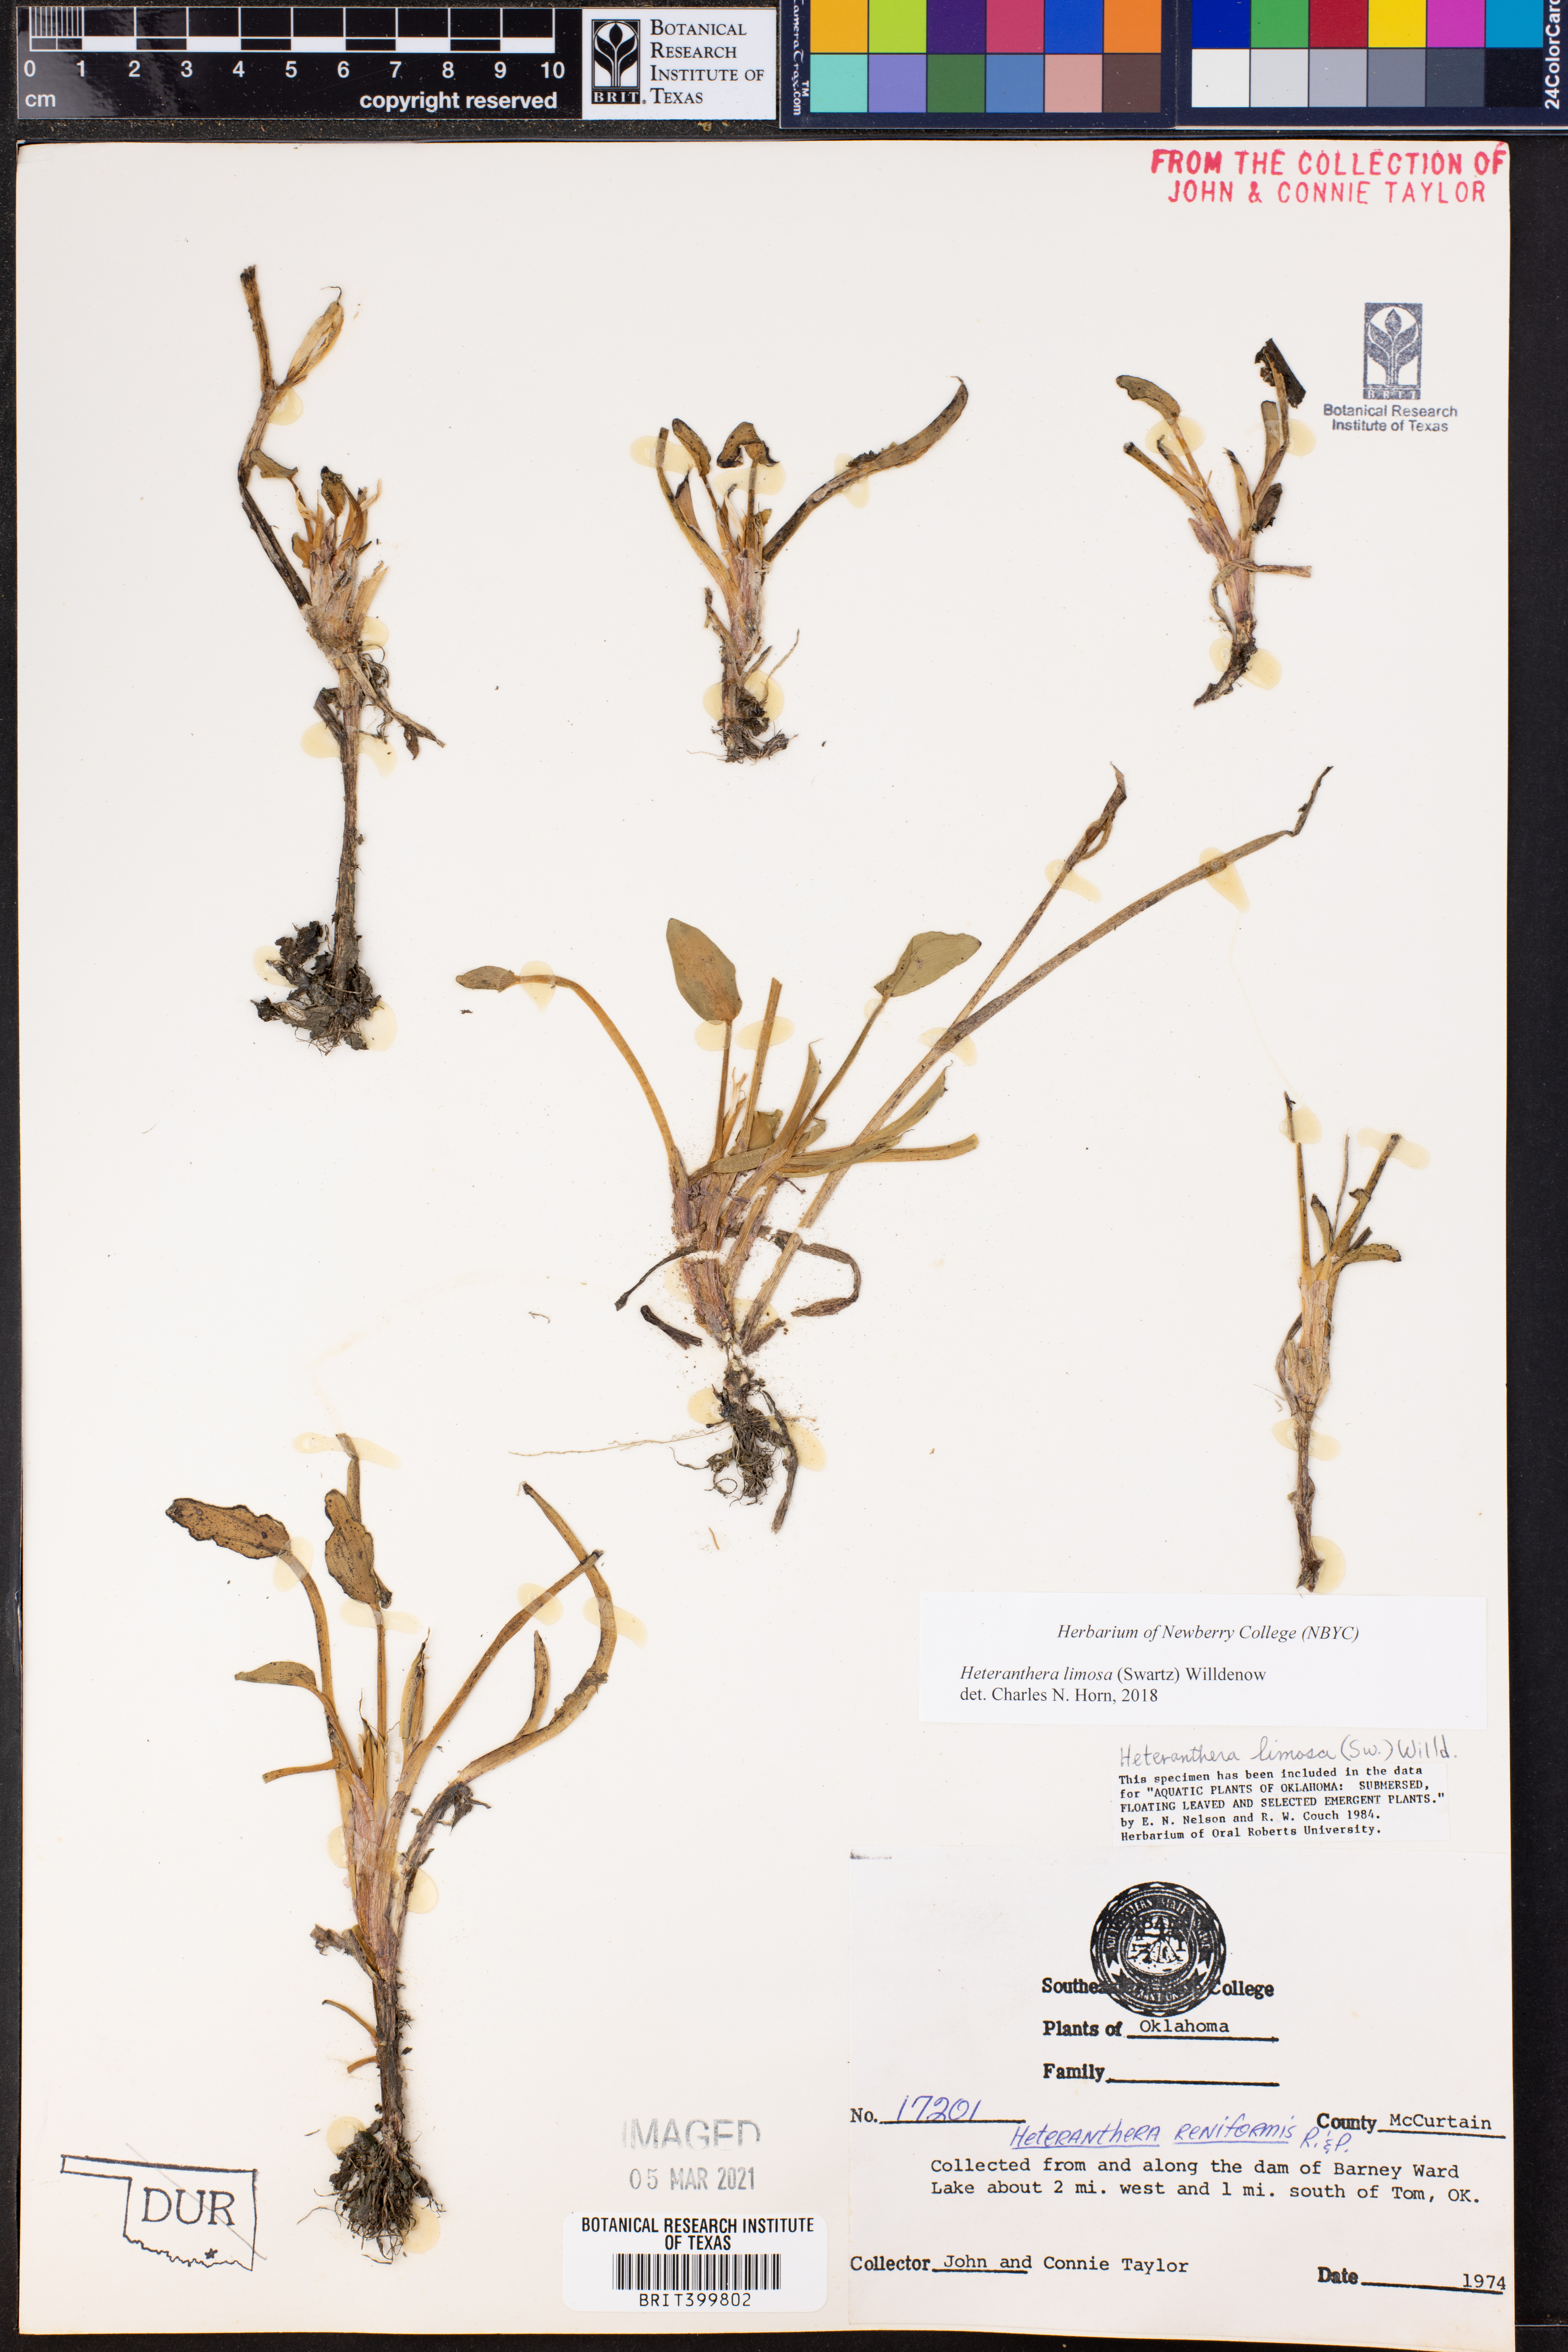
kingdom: Plantae
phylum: Tracheophyta
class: Liliopsida
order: Commelinales
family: Pontederiaceae
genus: Heteranthera
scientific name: Heteranthera limosa
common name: Blue mud-plantain
